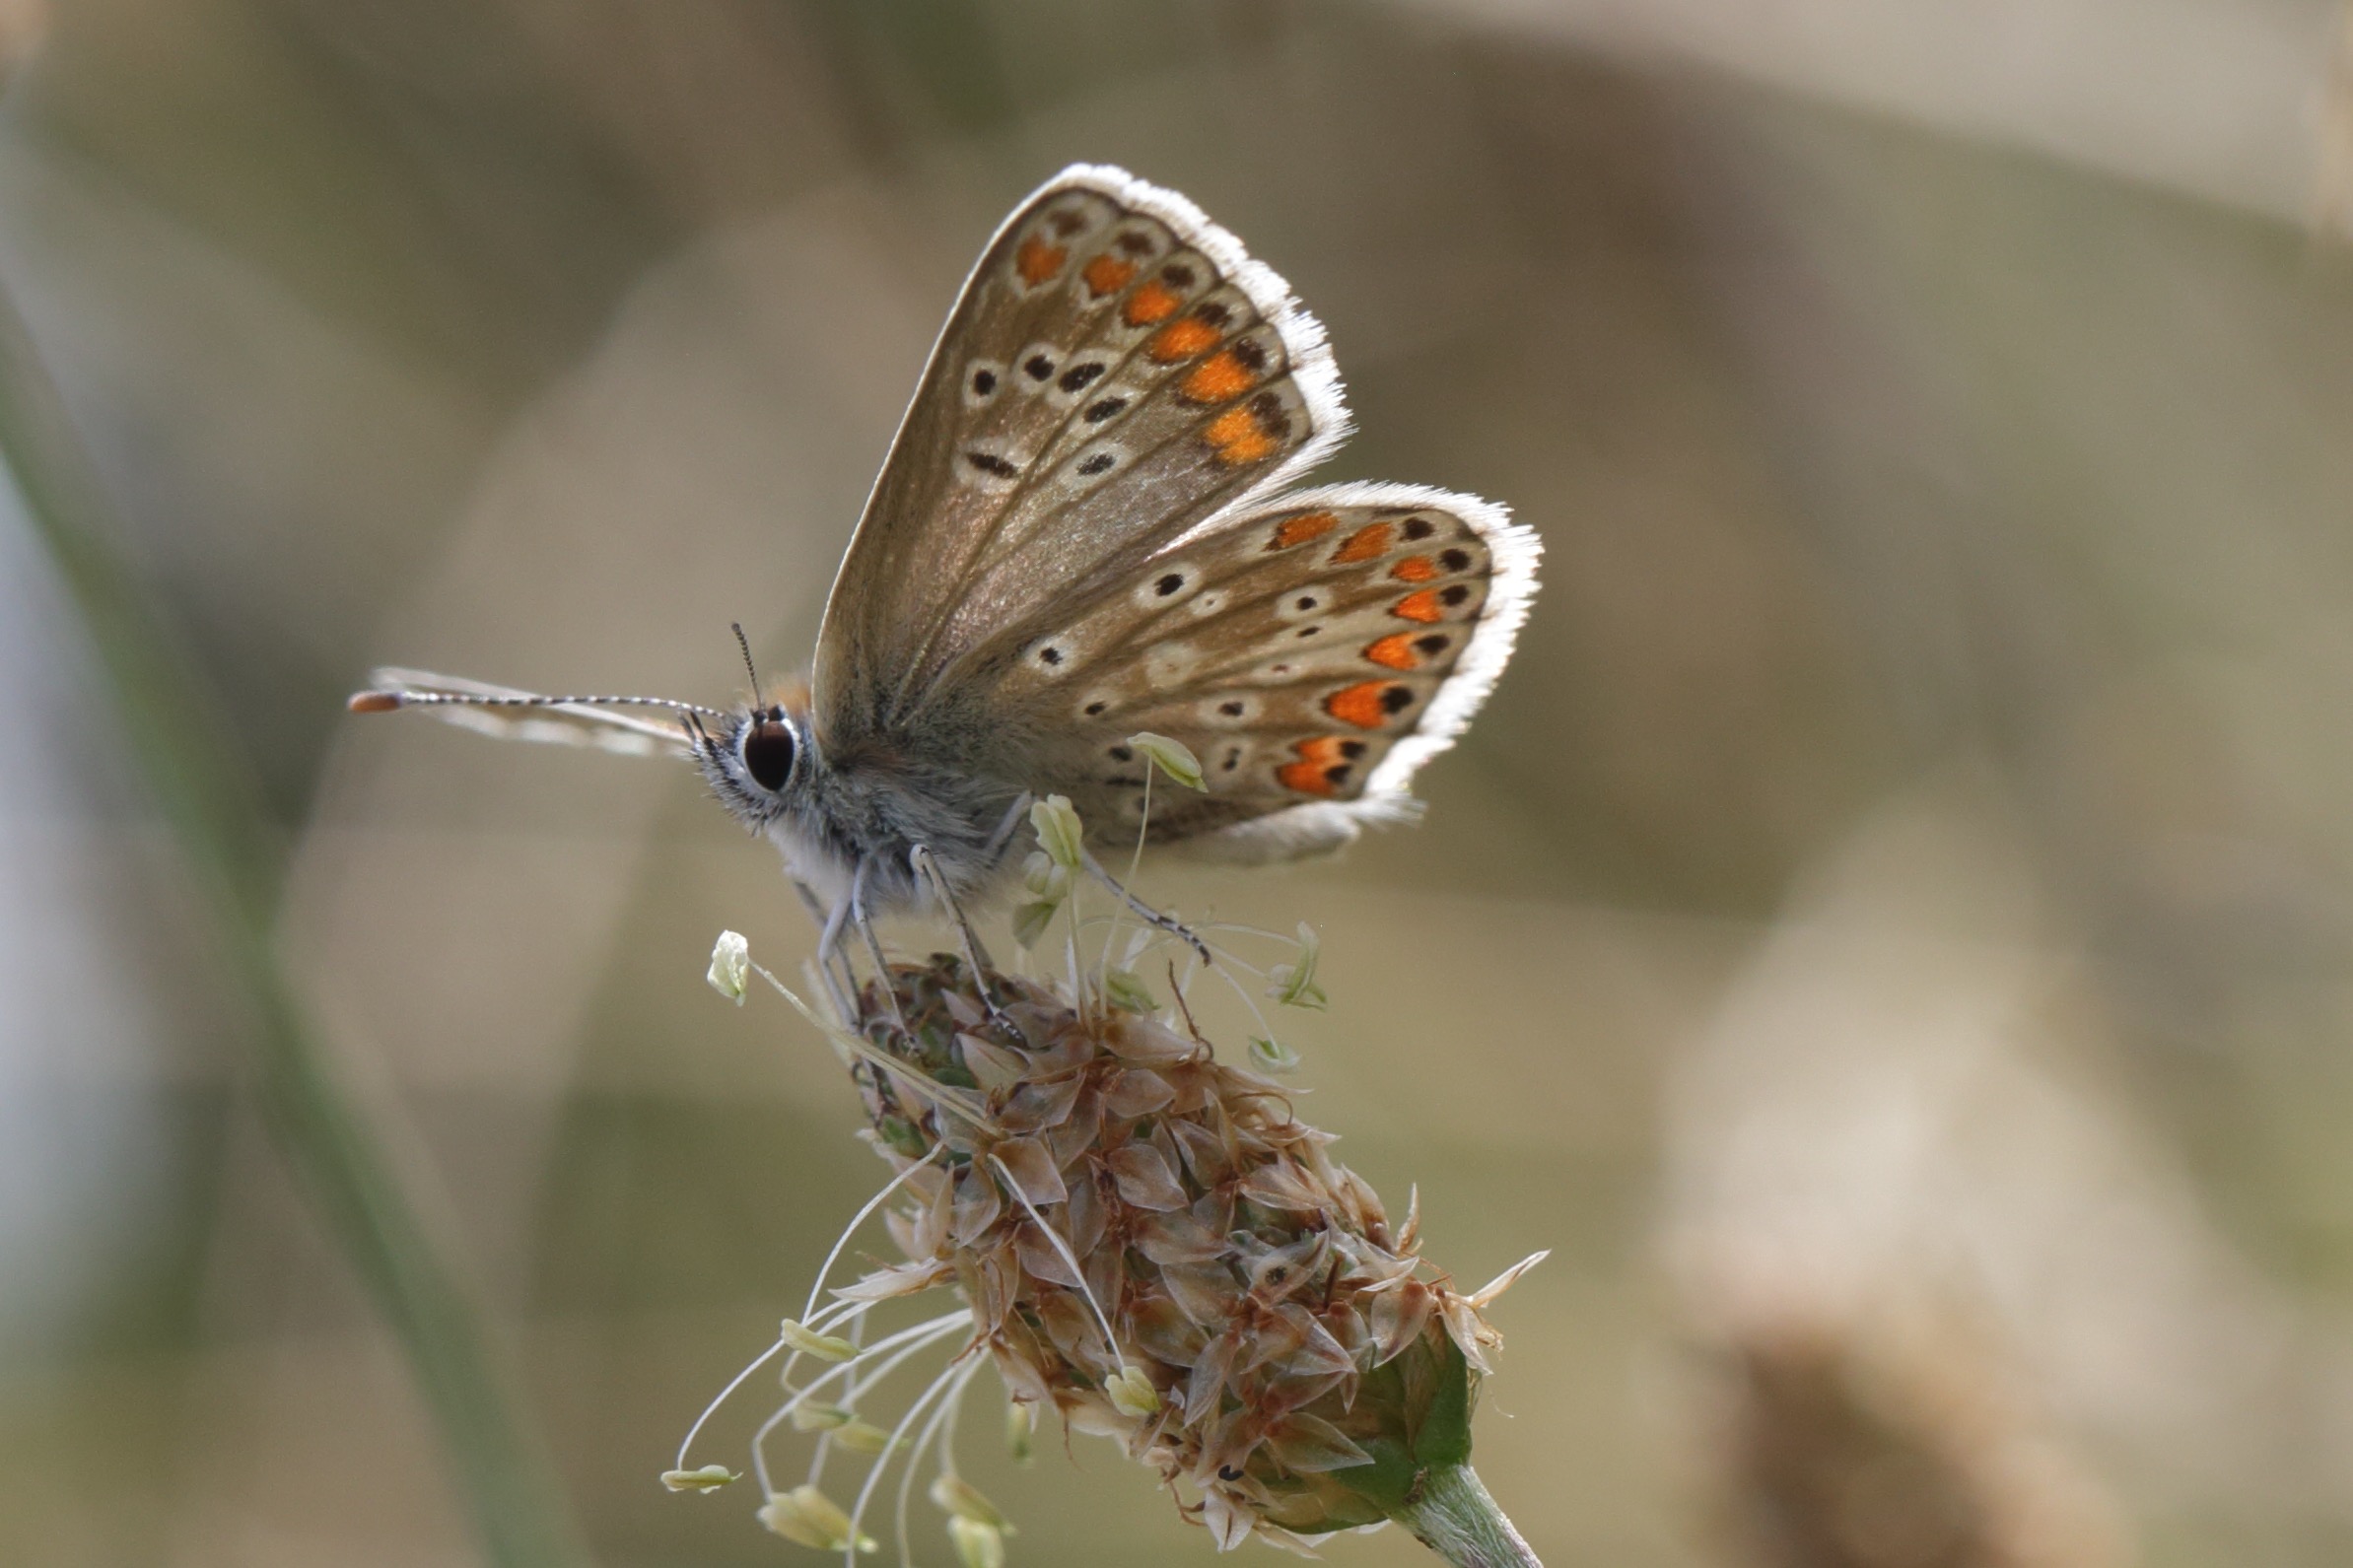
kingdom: Animalia
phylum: Arthropoda
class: Insecta
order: Lepidoptera
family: Lycaenidae
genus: Aricia
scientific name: Aricia agestis
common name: Rødplettet blåfugl
